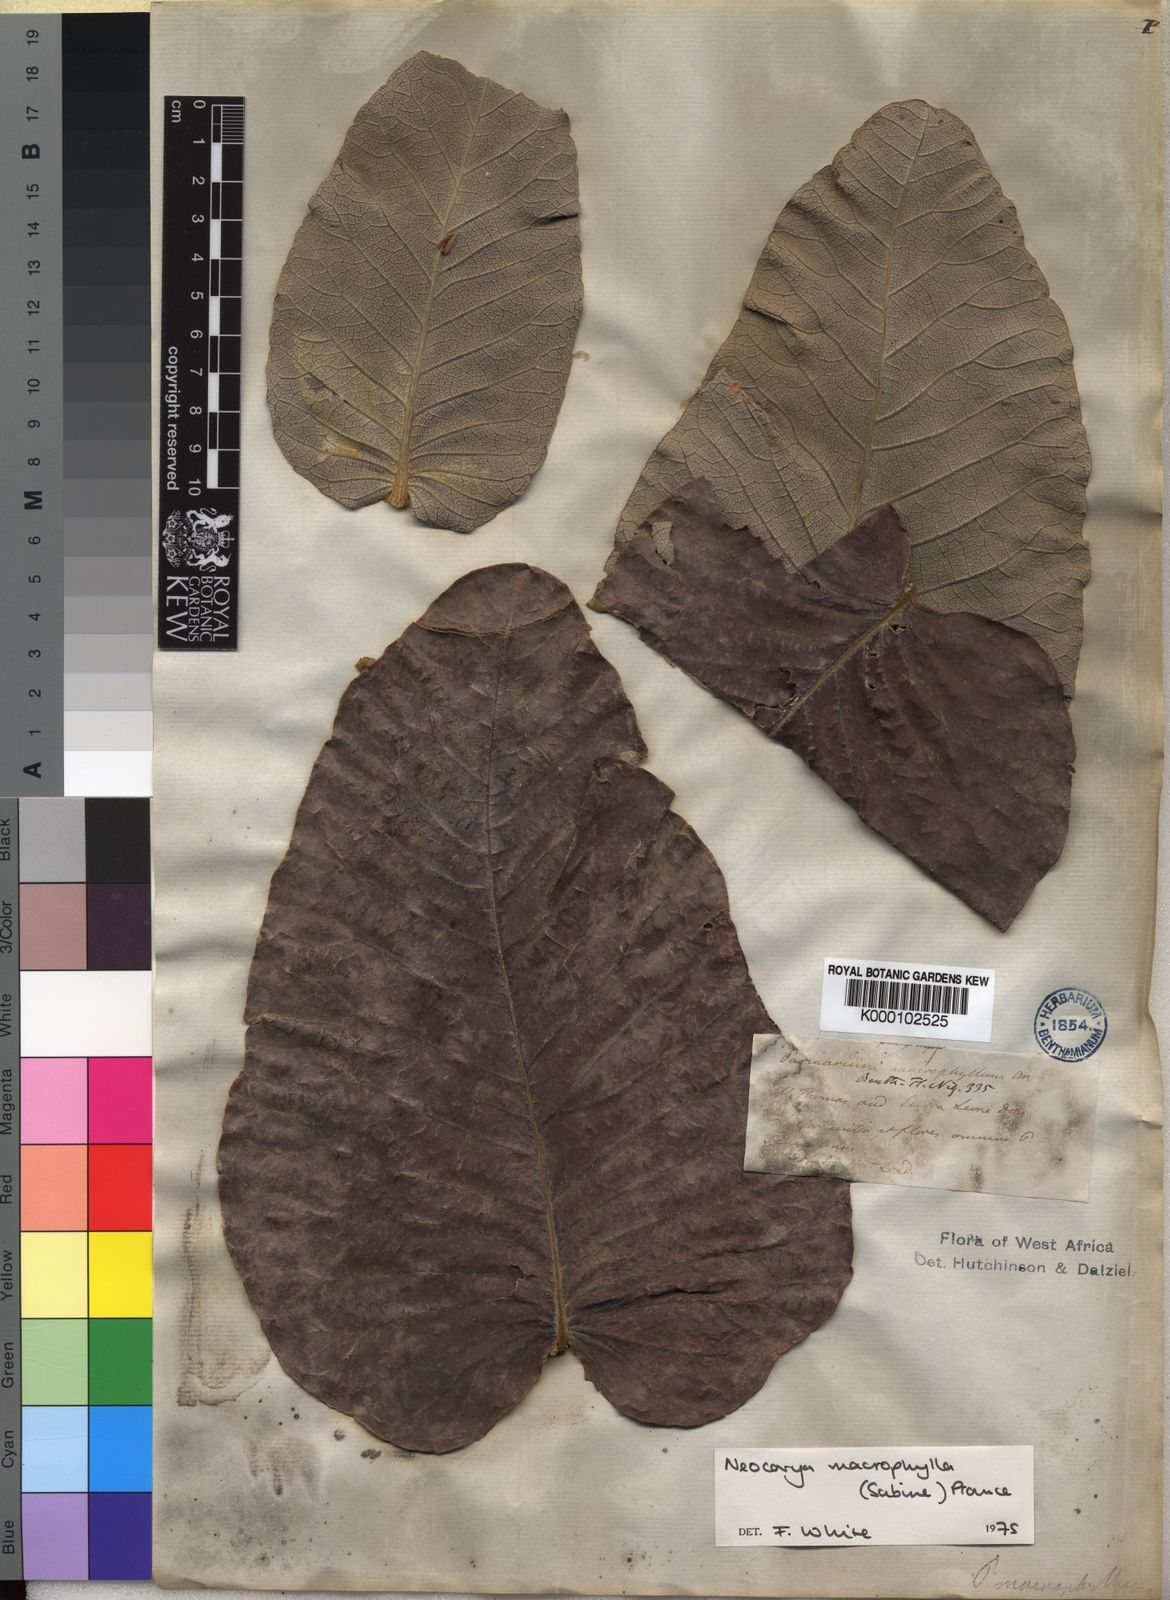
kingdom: Plantae
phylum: Tracheophyta
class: Magnoliopsida
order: Malpighiales
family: Chrysobalanaceae
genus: Neocarya
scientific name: Neocarya
